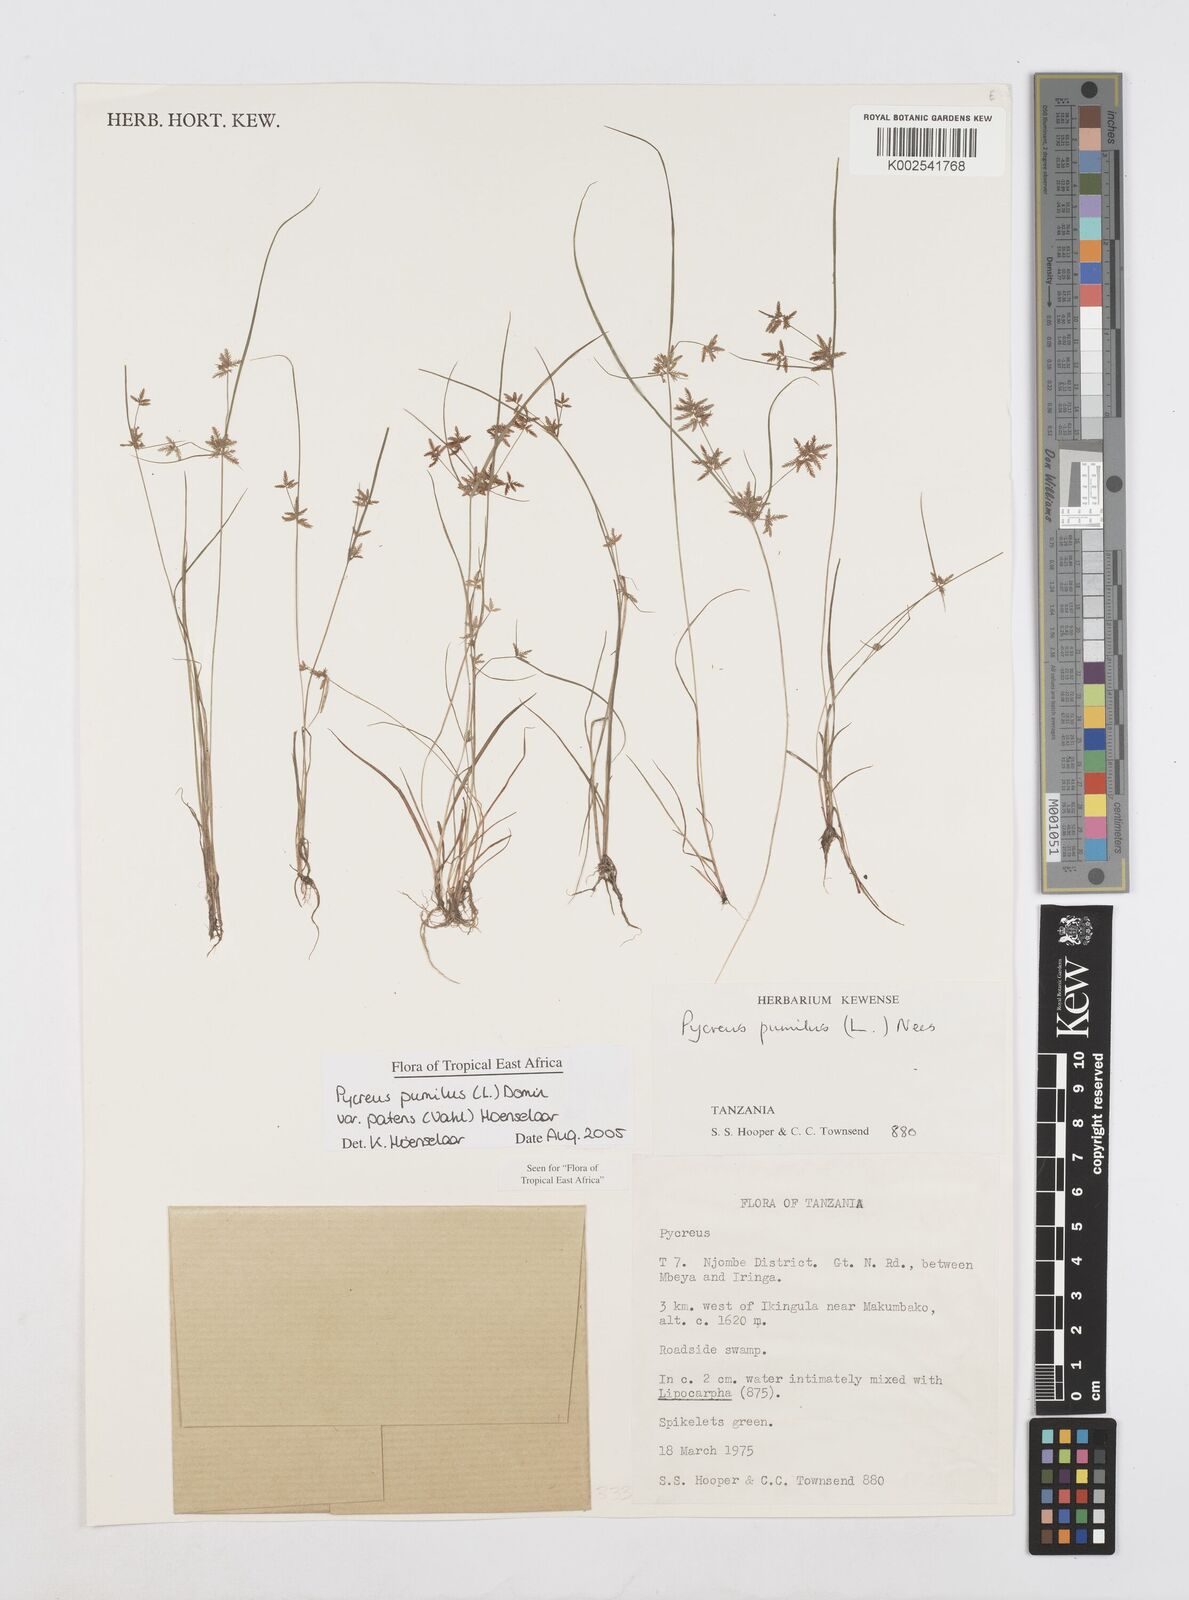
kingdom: Plantae
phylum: Tracheophyta
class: Liliopsida
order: Poales
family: Cyperaceae
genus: Cyperus
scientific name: Cyperus pumilus
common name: Low flatsedge
